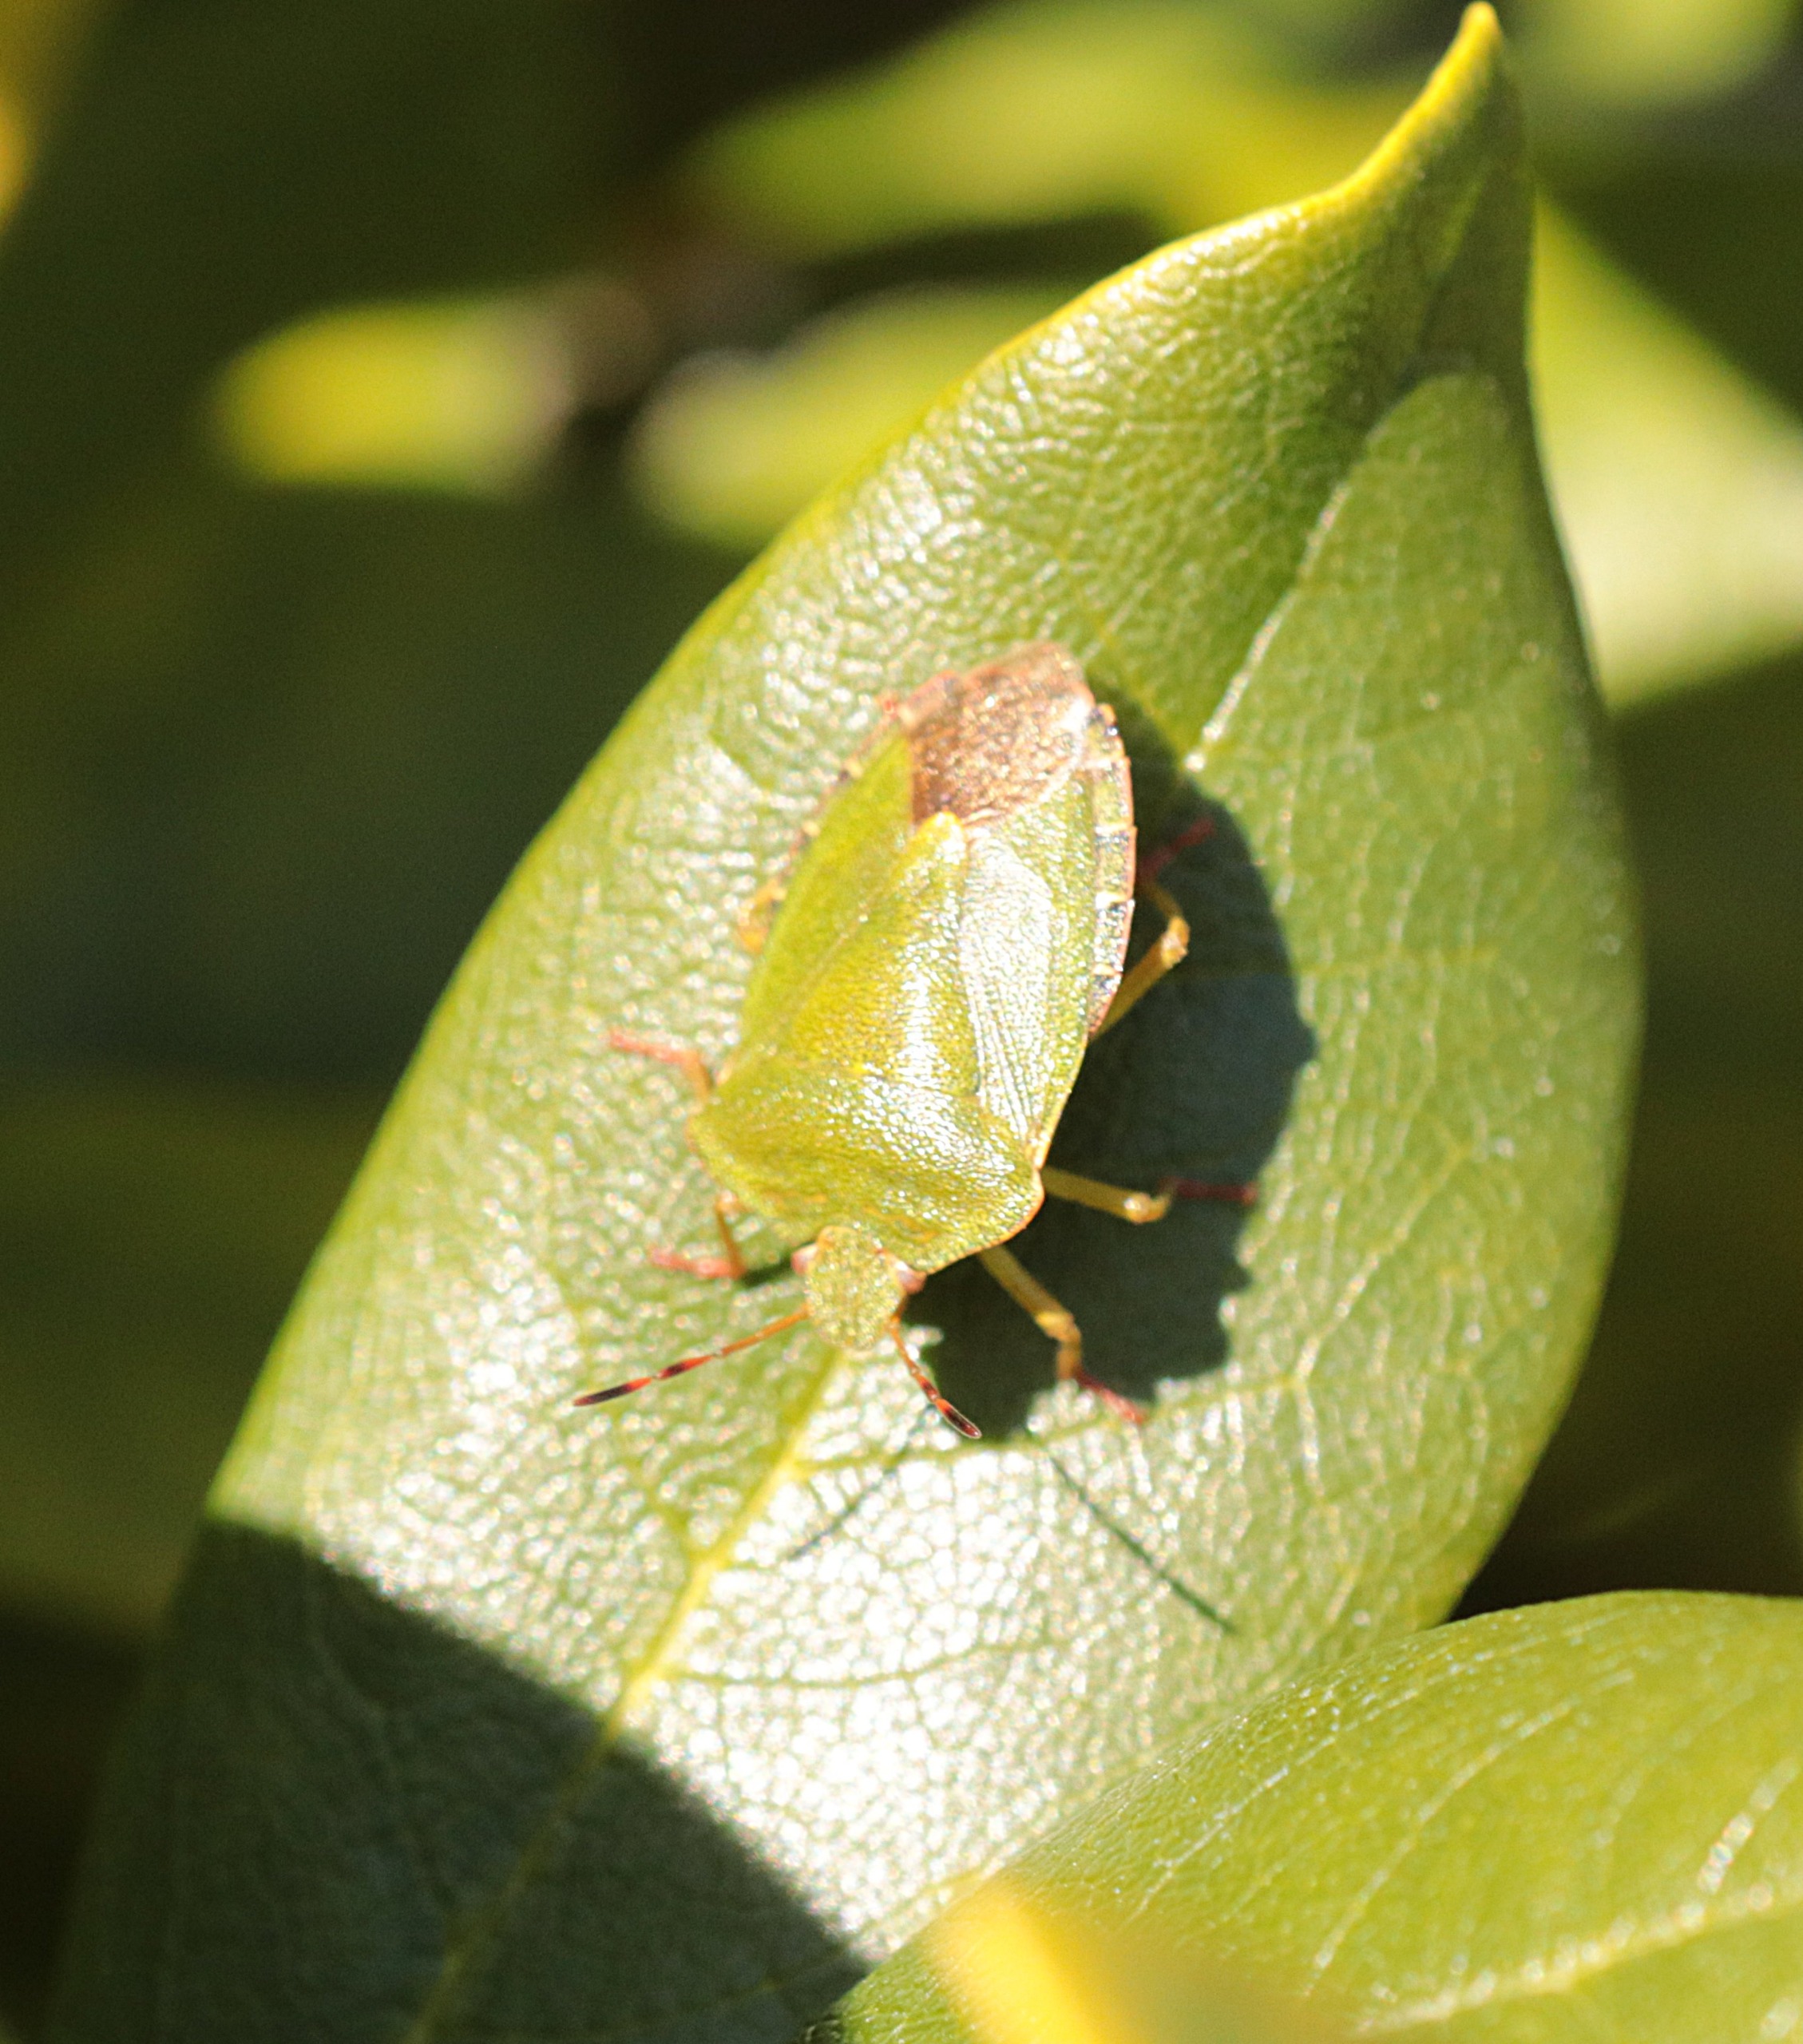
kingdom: Animalia
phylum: Arthropoda
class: Insecta
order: Hemiptera
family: Pentatomidae
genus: Palomena
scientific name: Palomena prasina
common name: Grøn bredtæge
